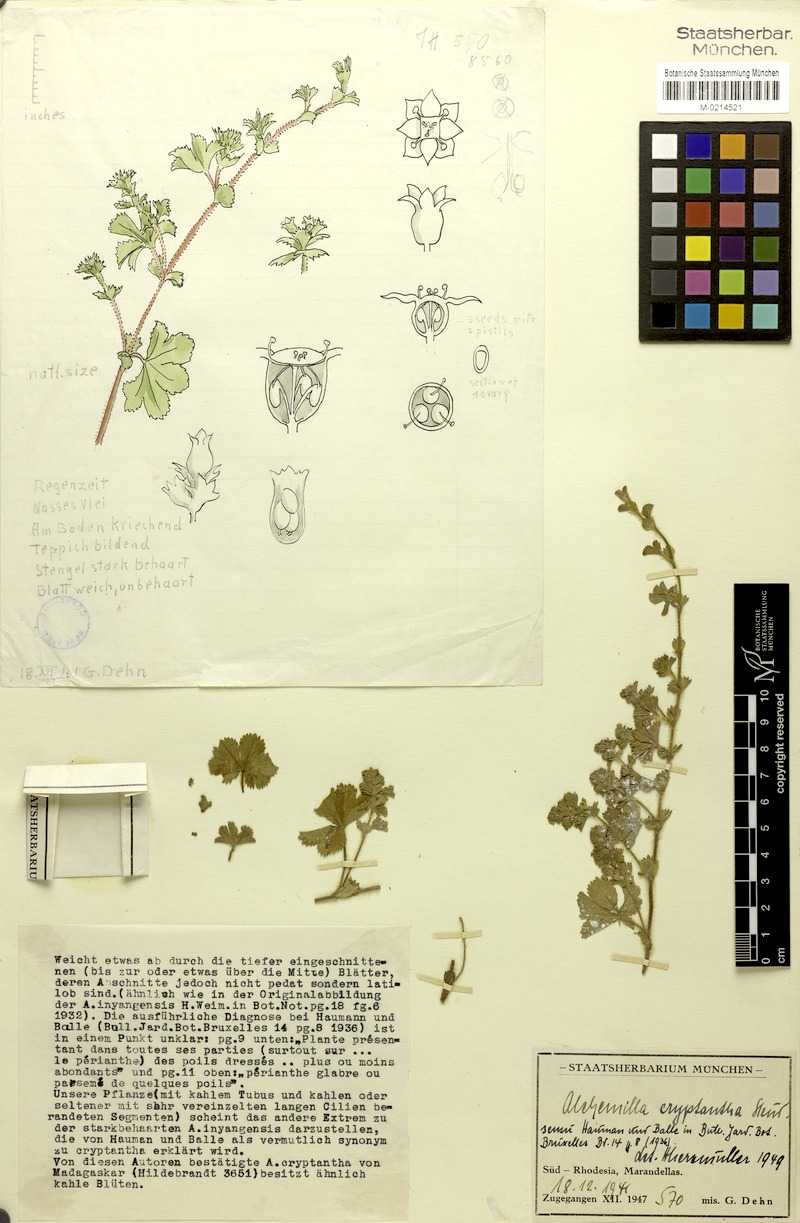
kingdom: Plantae
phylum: Tracheophyta
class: Magnoliopsida
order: Rosales
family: Rosaceae
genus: Alchemilla
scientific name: Alchemilla cryptantha
